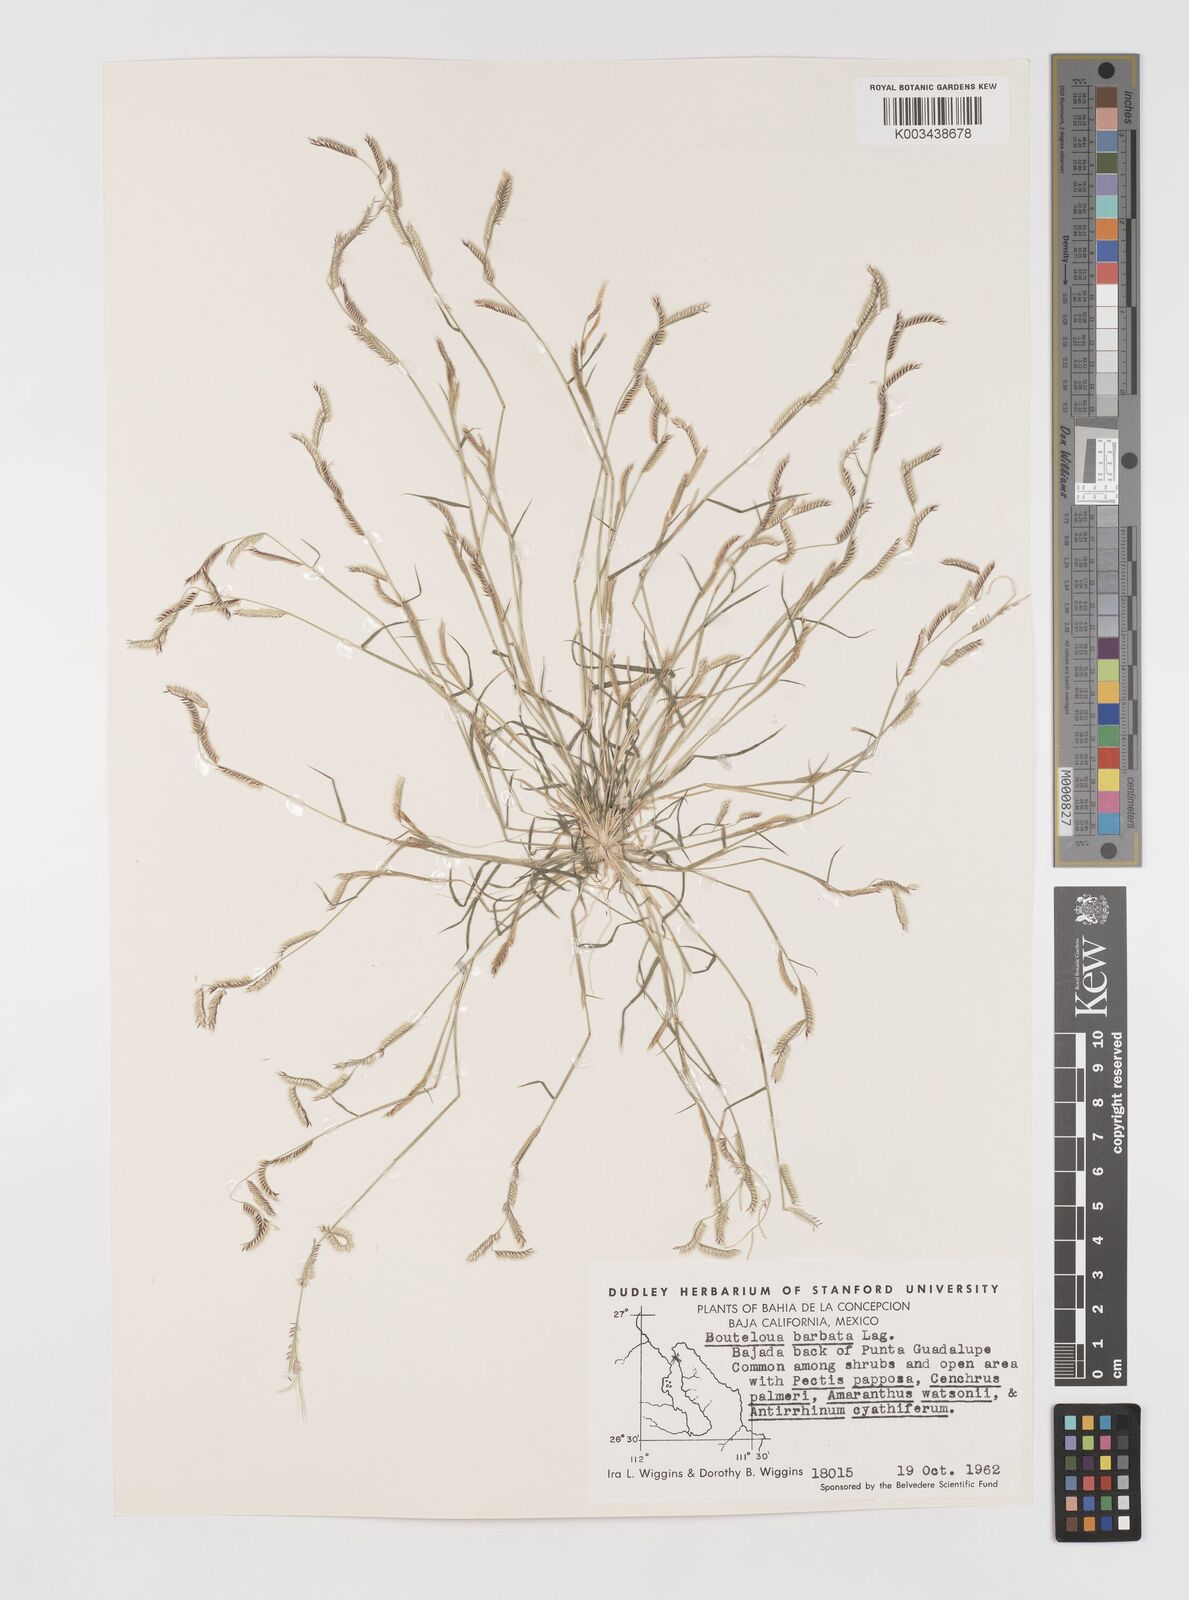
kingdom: Plantae
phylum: Tracheophyta
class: Liliopsida
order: Poales
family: Poaceae
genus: Bouteloua
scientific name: Bouteloua
